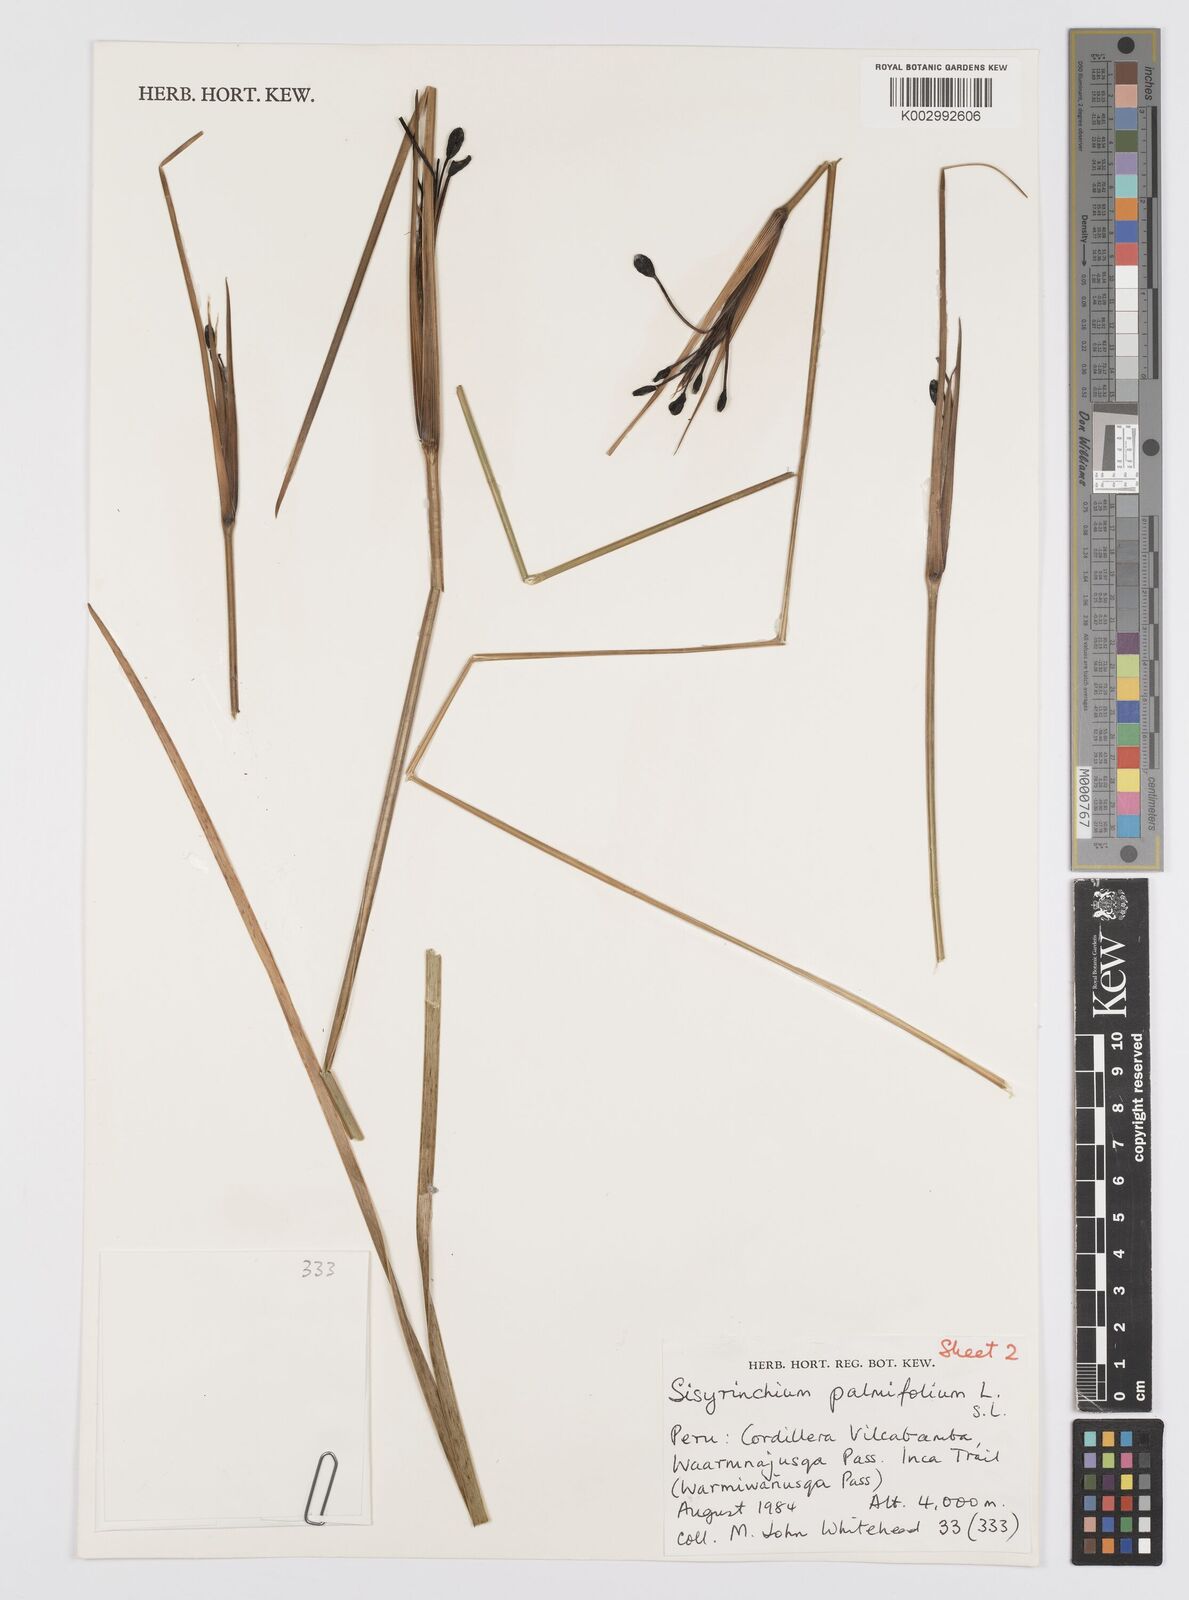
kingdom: Plantae
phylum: Tracheophyta
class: Liliopsida
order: Asparagales
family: Iridaceae
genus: Sisyrinchium
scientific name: Sisyrinchium palmifolium
